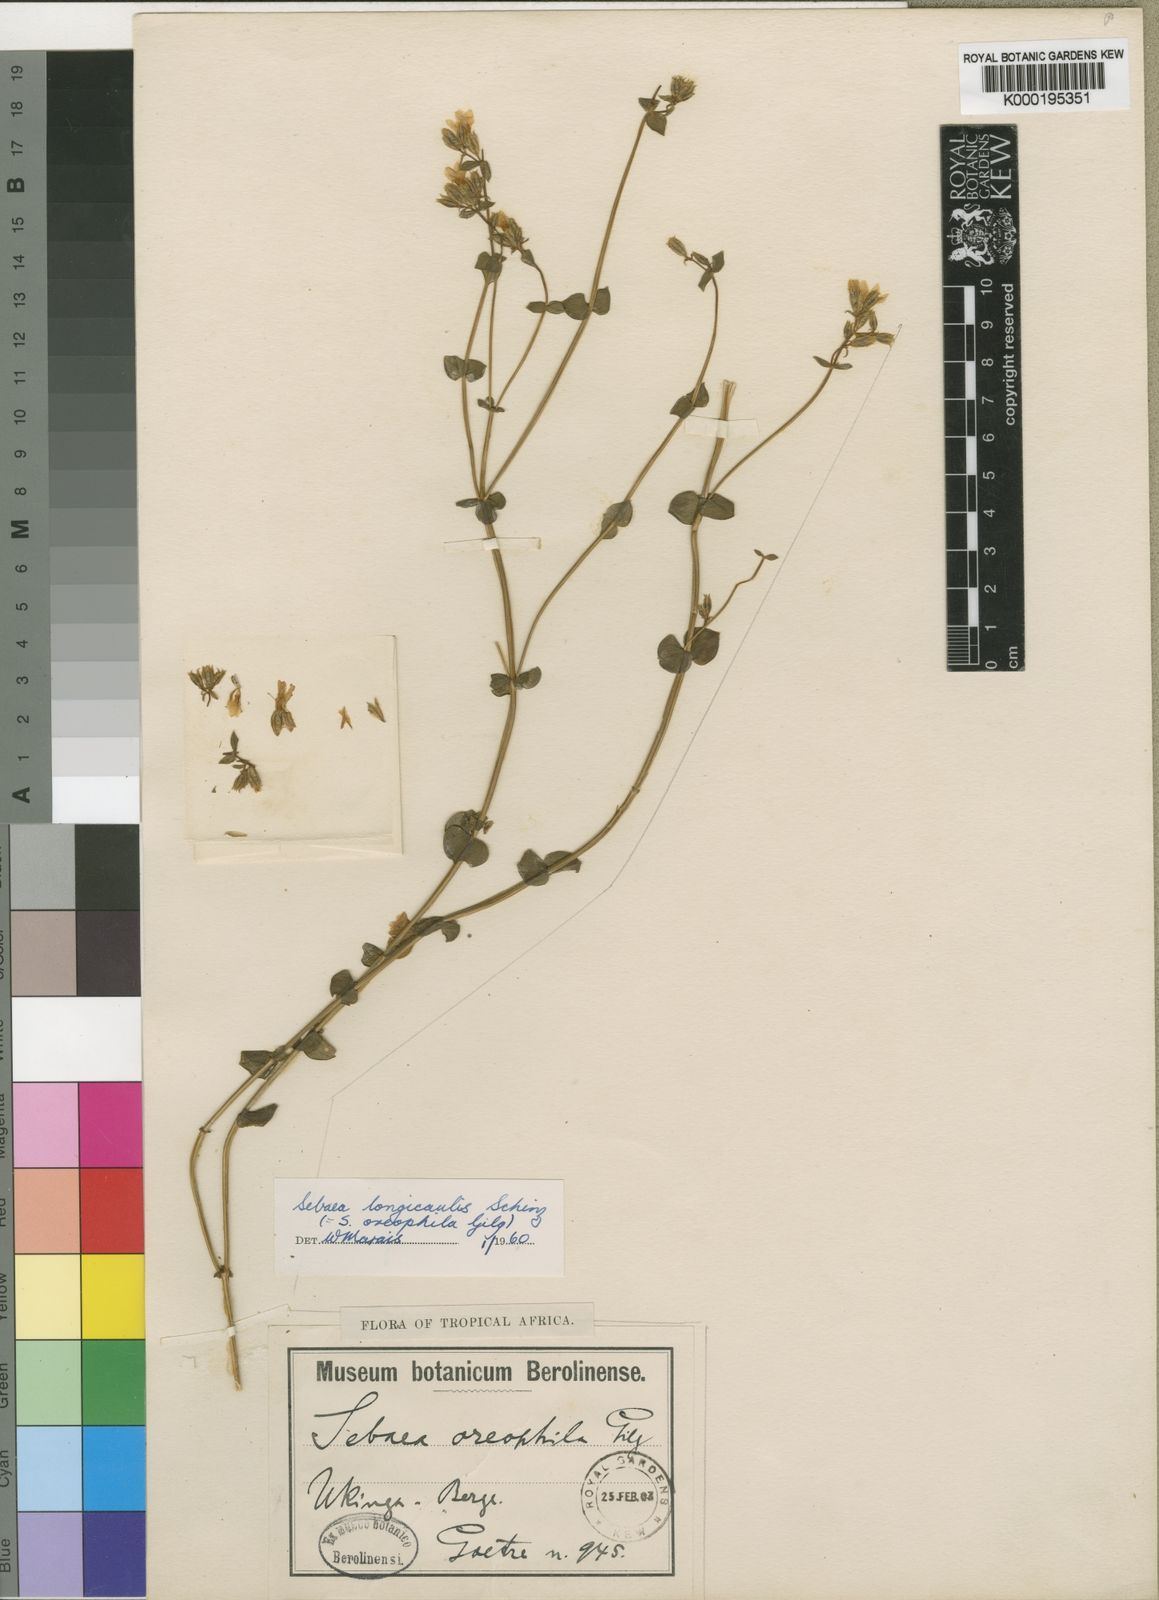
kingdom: Plantae
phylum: Tracheophyta
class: Magnoliopsida
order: Gentianales
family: Gentianaceae
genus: Sebaea
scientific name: Sebaea longicaulis
